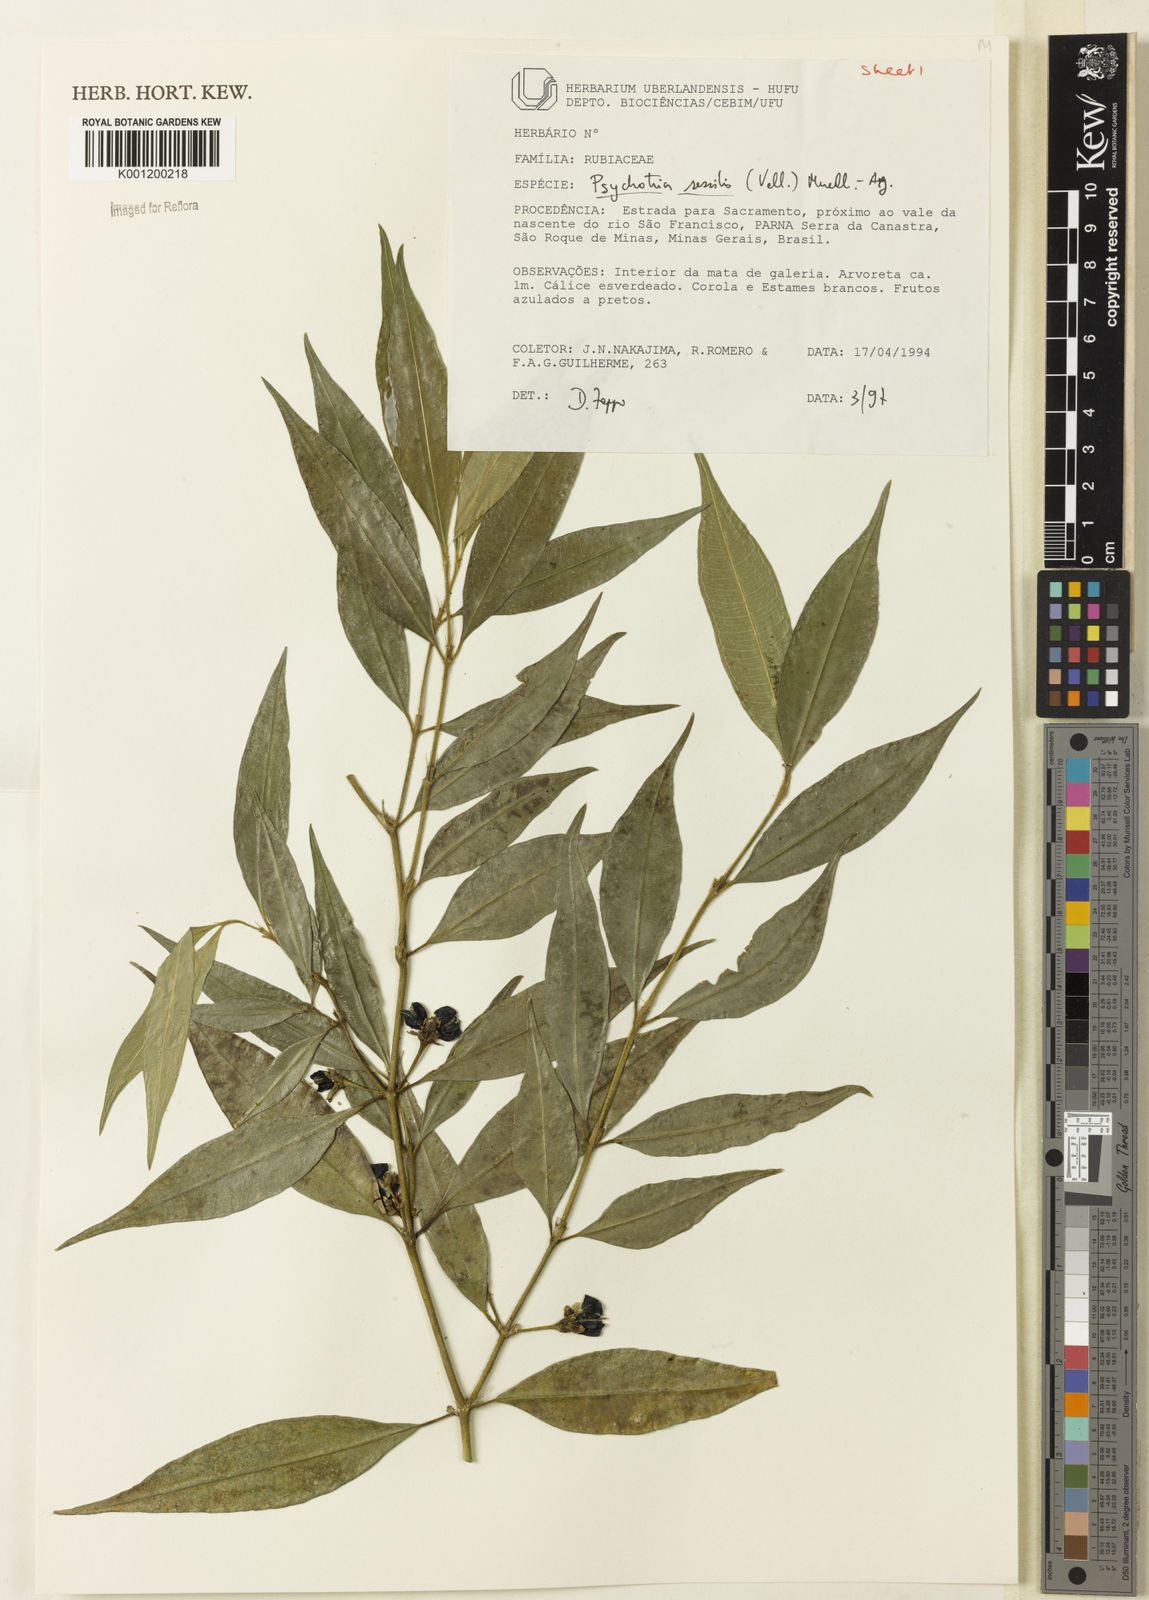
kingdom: Plantae
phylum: Tracheophyta
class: Magnoliopsida
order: Gentianales
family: Rubiaceae
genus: Rudgea
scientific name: Rudgea sessilis
